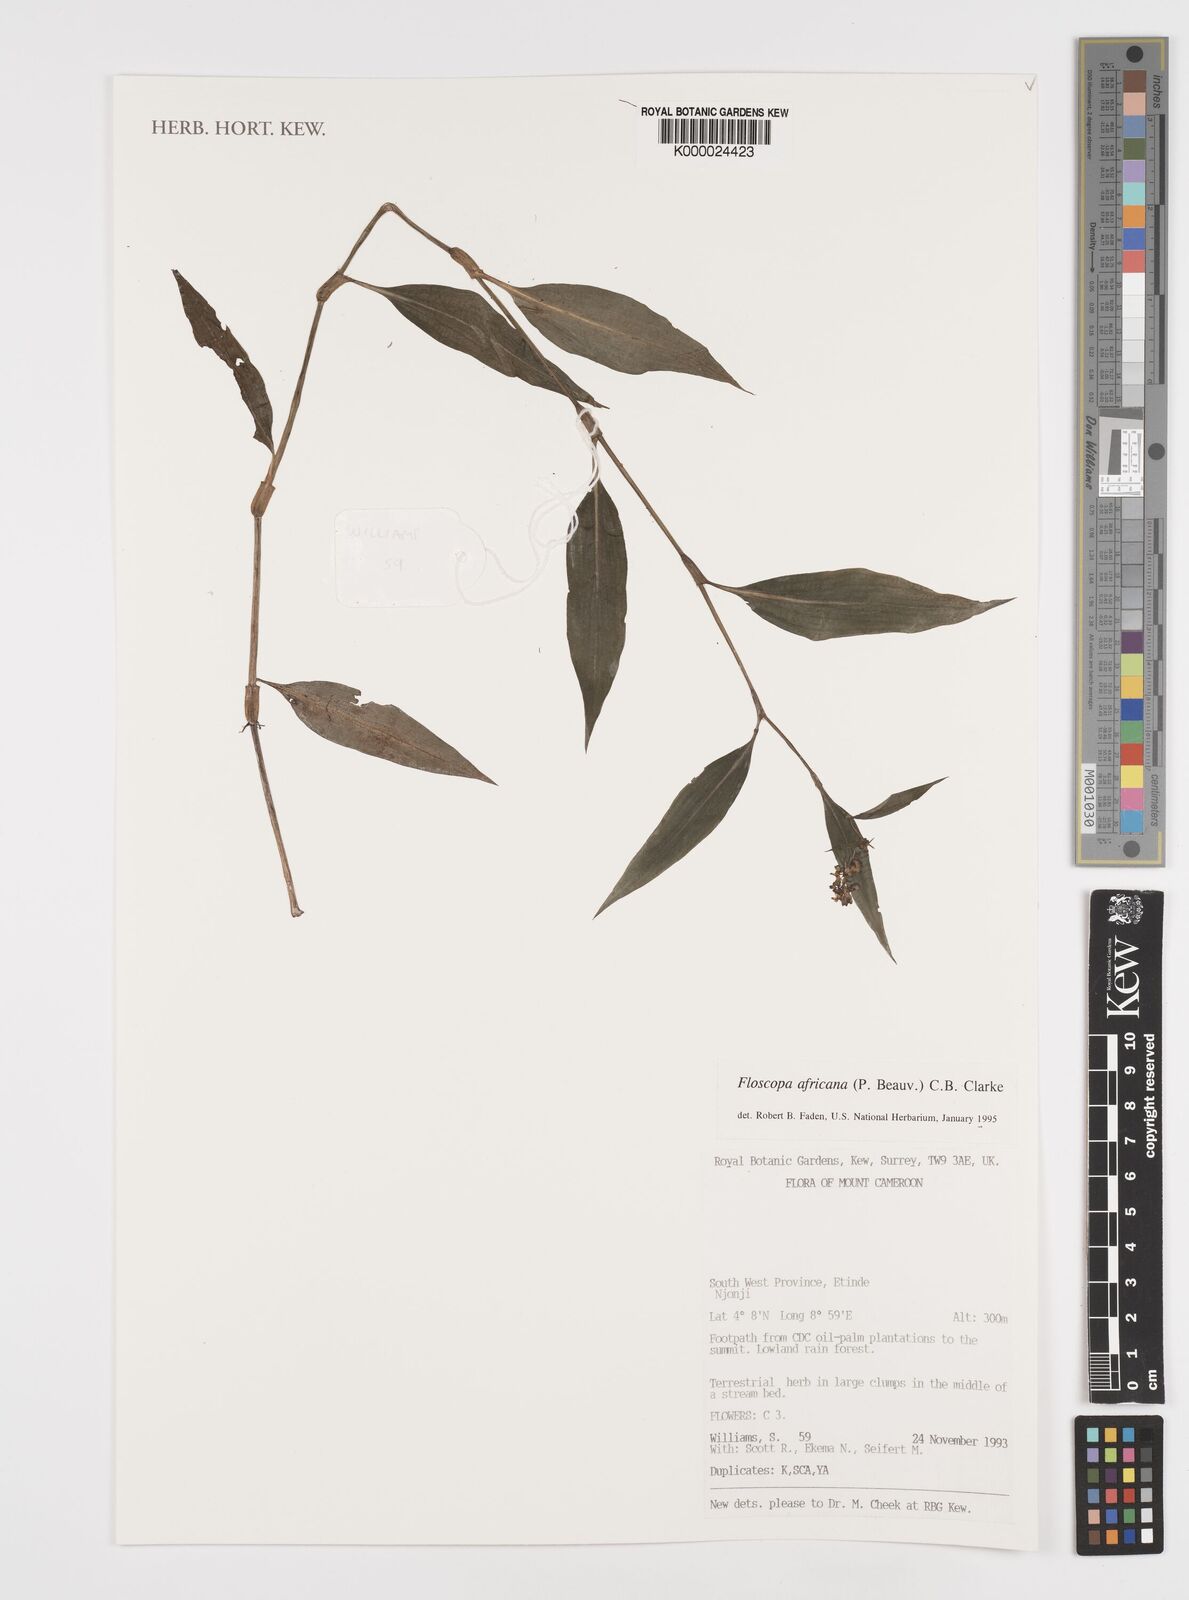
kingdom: Plantae
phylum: Tracheophyta
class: Liliopsida
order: Commelinales
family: Commelinaceae
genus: Floscopa
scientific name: Floscopa africana
